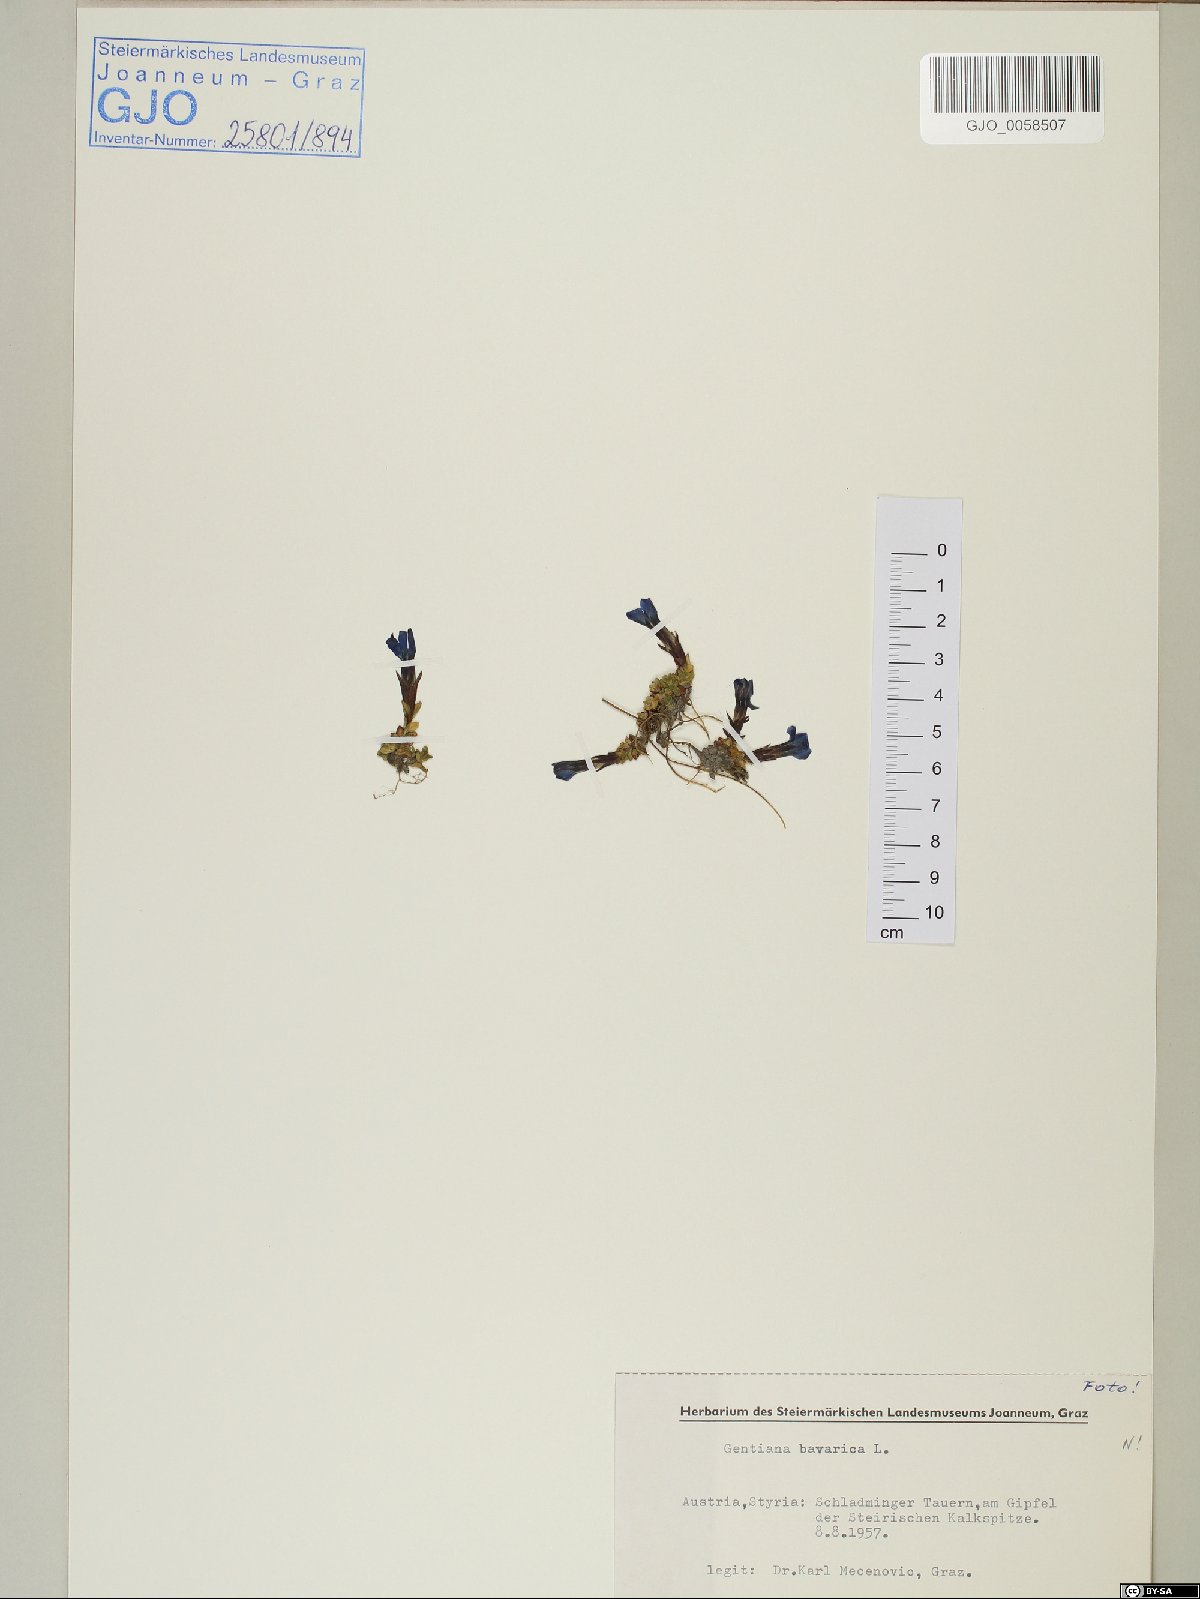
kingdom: Plantae
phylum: Tracheophyta
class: Magnoliopsida
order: Gentianales
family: Gentianaceae
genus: Gentiana
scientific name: Gentiana bavarica
